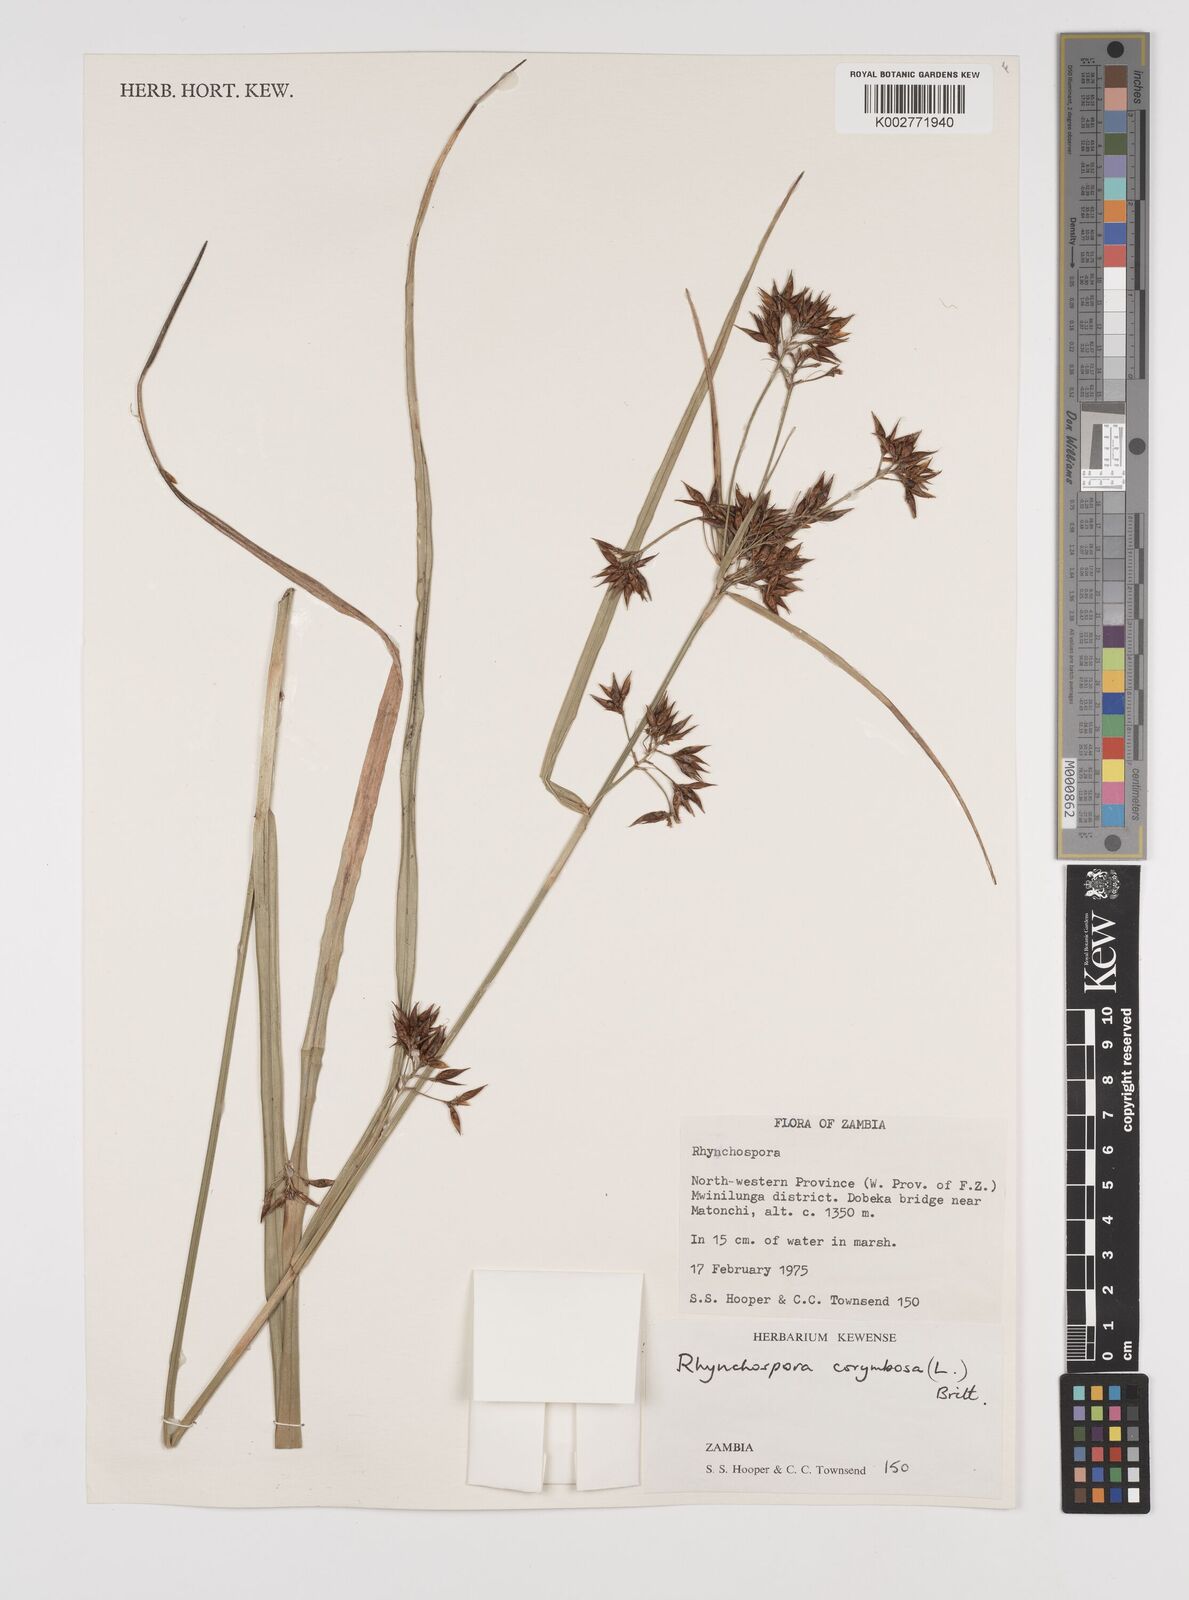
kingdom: Plantae
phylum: Tracheophyta
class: Liliopsida
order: Poales
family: Cyperaceae
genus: Rhynchospora
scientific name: Rhynchospora corymbosa
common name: Golden beak sedge
